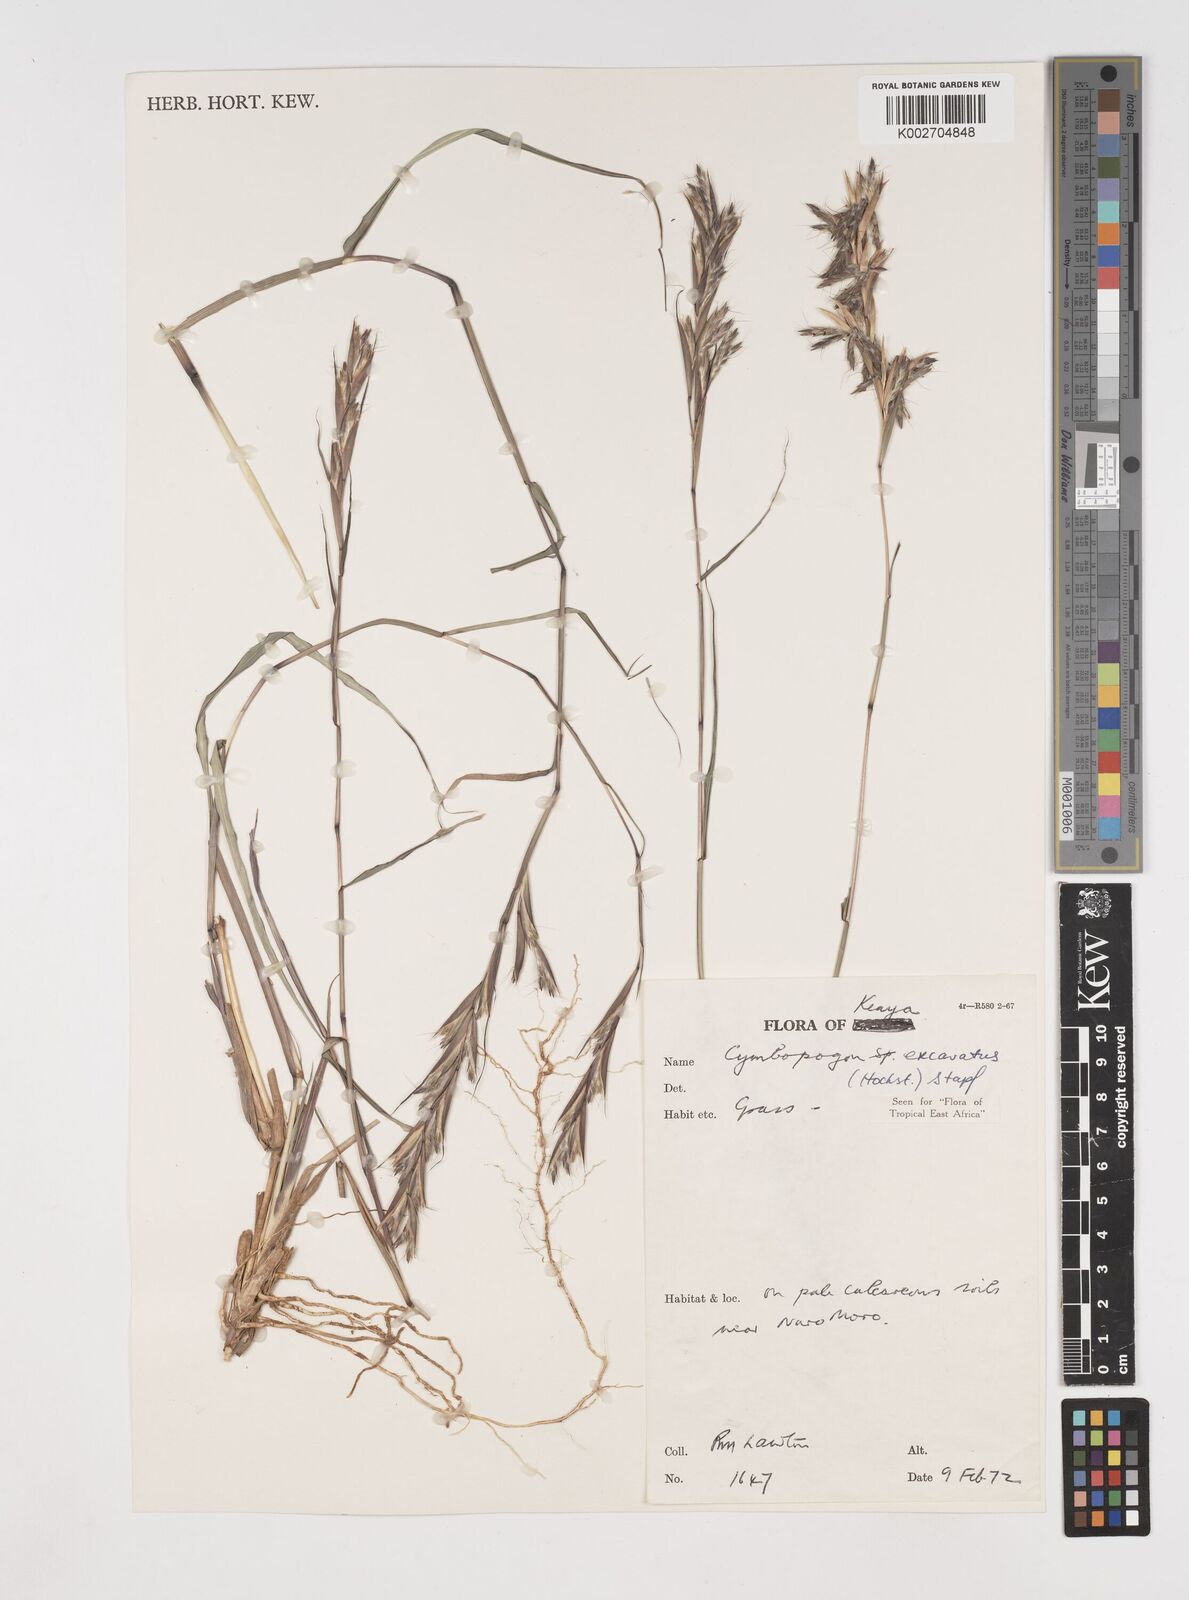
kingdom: Plantae
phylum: Tracheophyta
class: Liliopsida
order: Poales
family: Poaceae
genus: Cymbopogon
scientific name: Cymbopogon caesius
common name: Kachi grass
